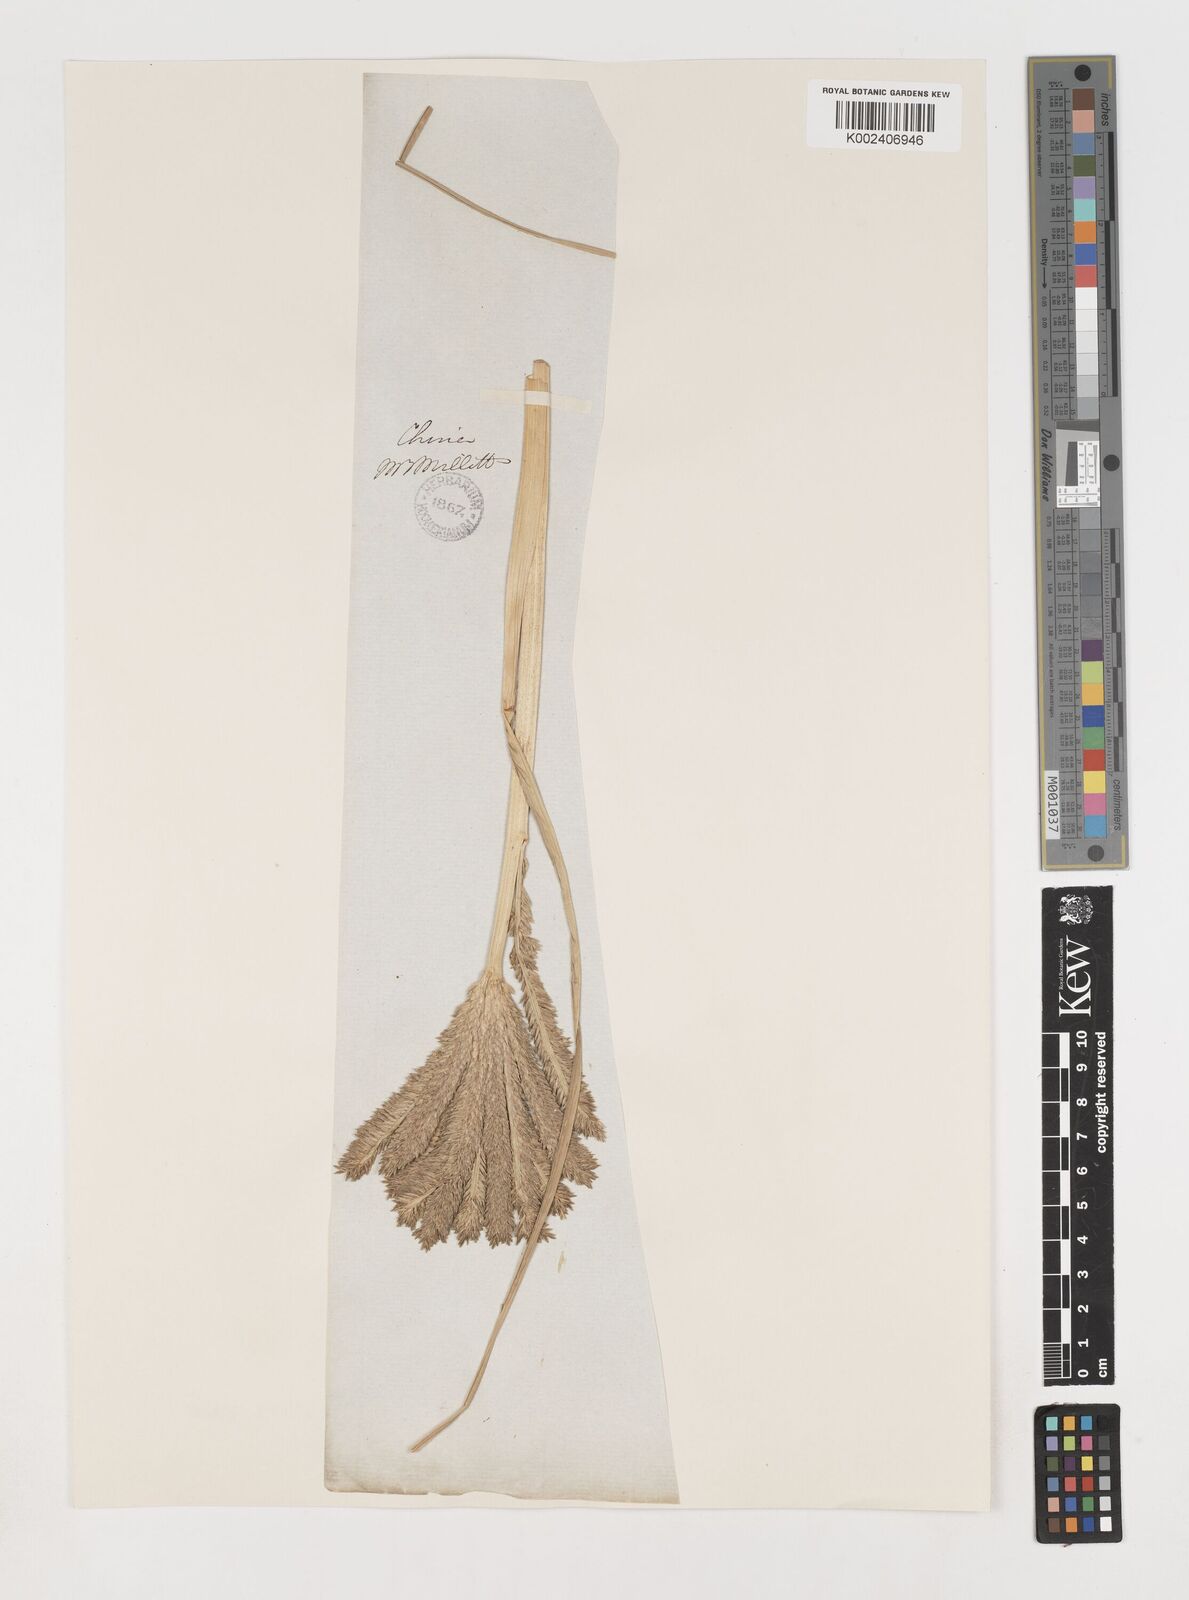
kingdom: Plantae
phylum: Tracheophyta
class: Liliopsida
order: Poales
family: Poaceae
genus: Eleusine
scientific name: Eleusine coracana
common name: Finger millet
